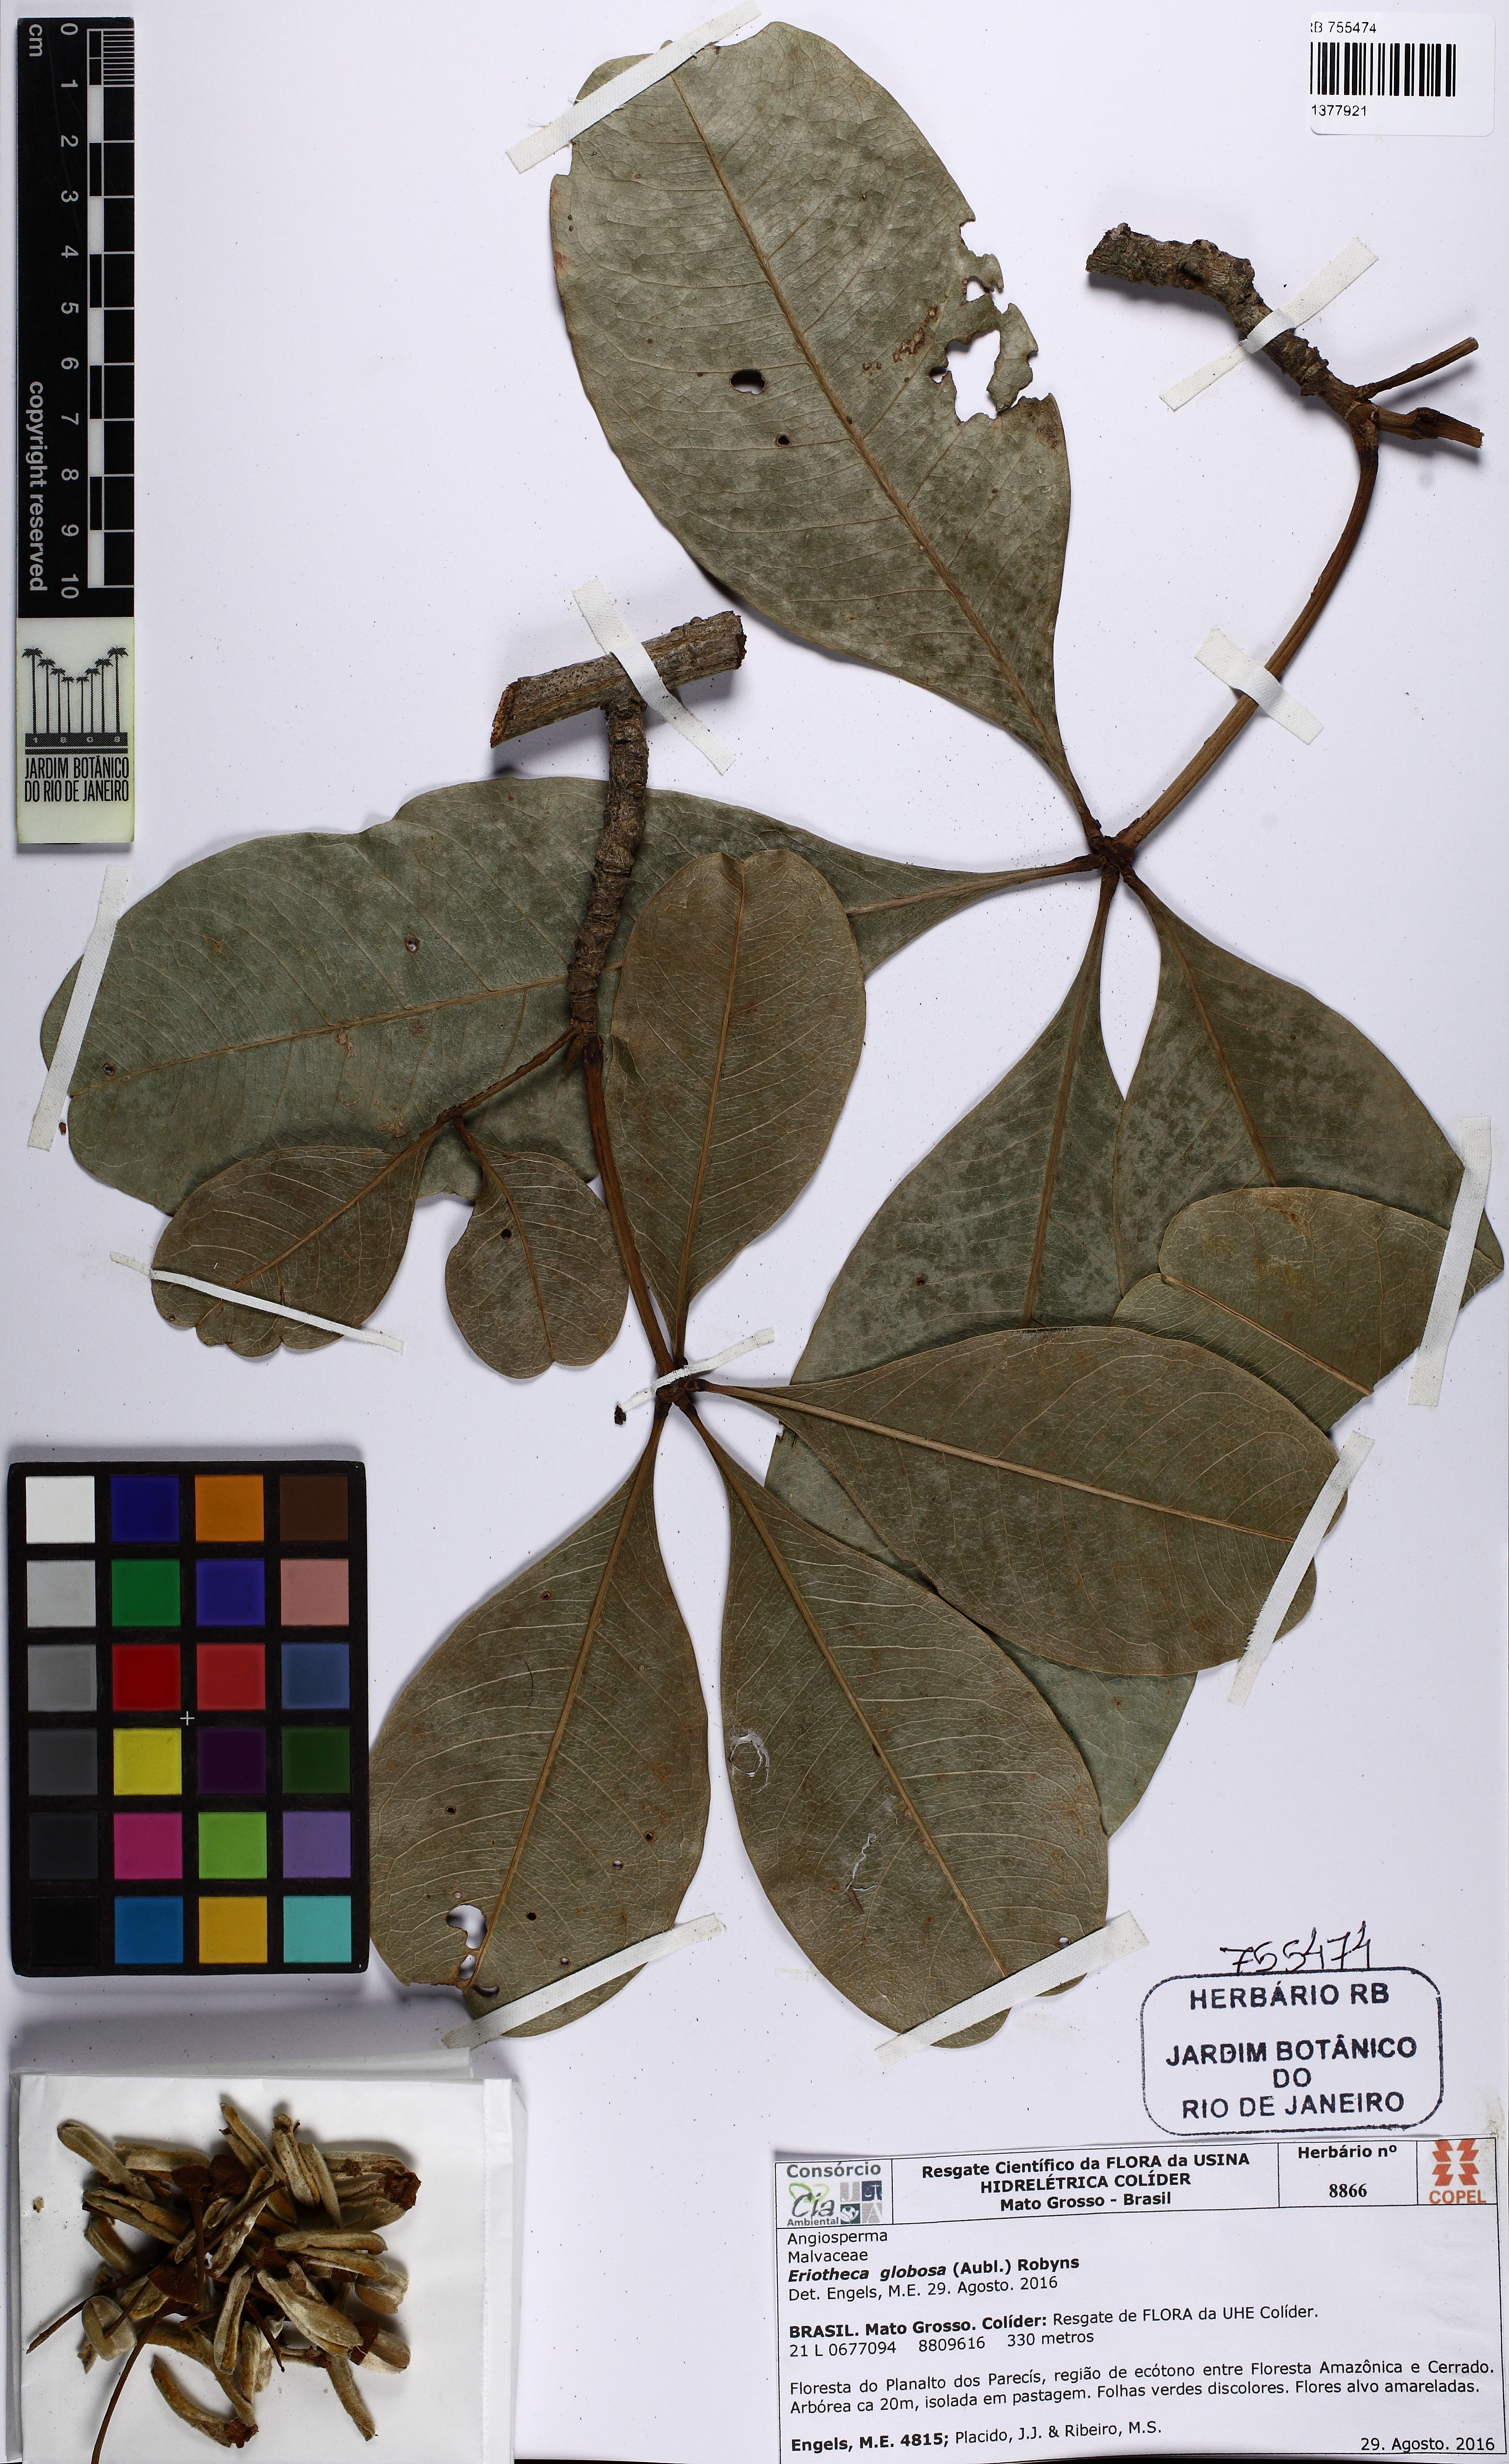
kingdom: Plantae
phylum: Tracheophyta
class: Magnoliopsida
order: Malvales
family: Malvaceae
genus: Eriotheca
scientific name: Eriotheca globosa
